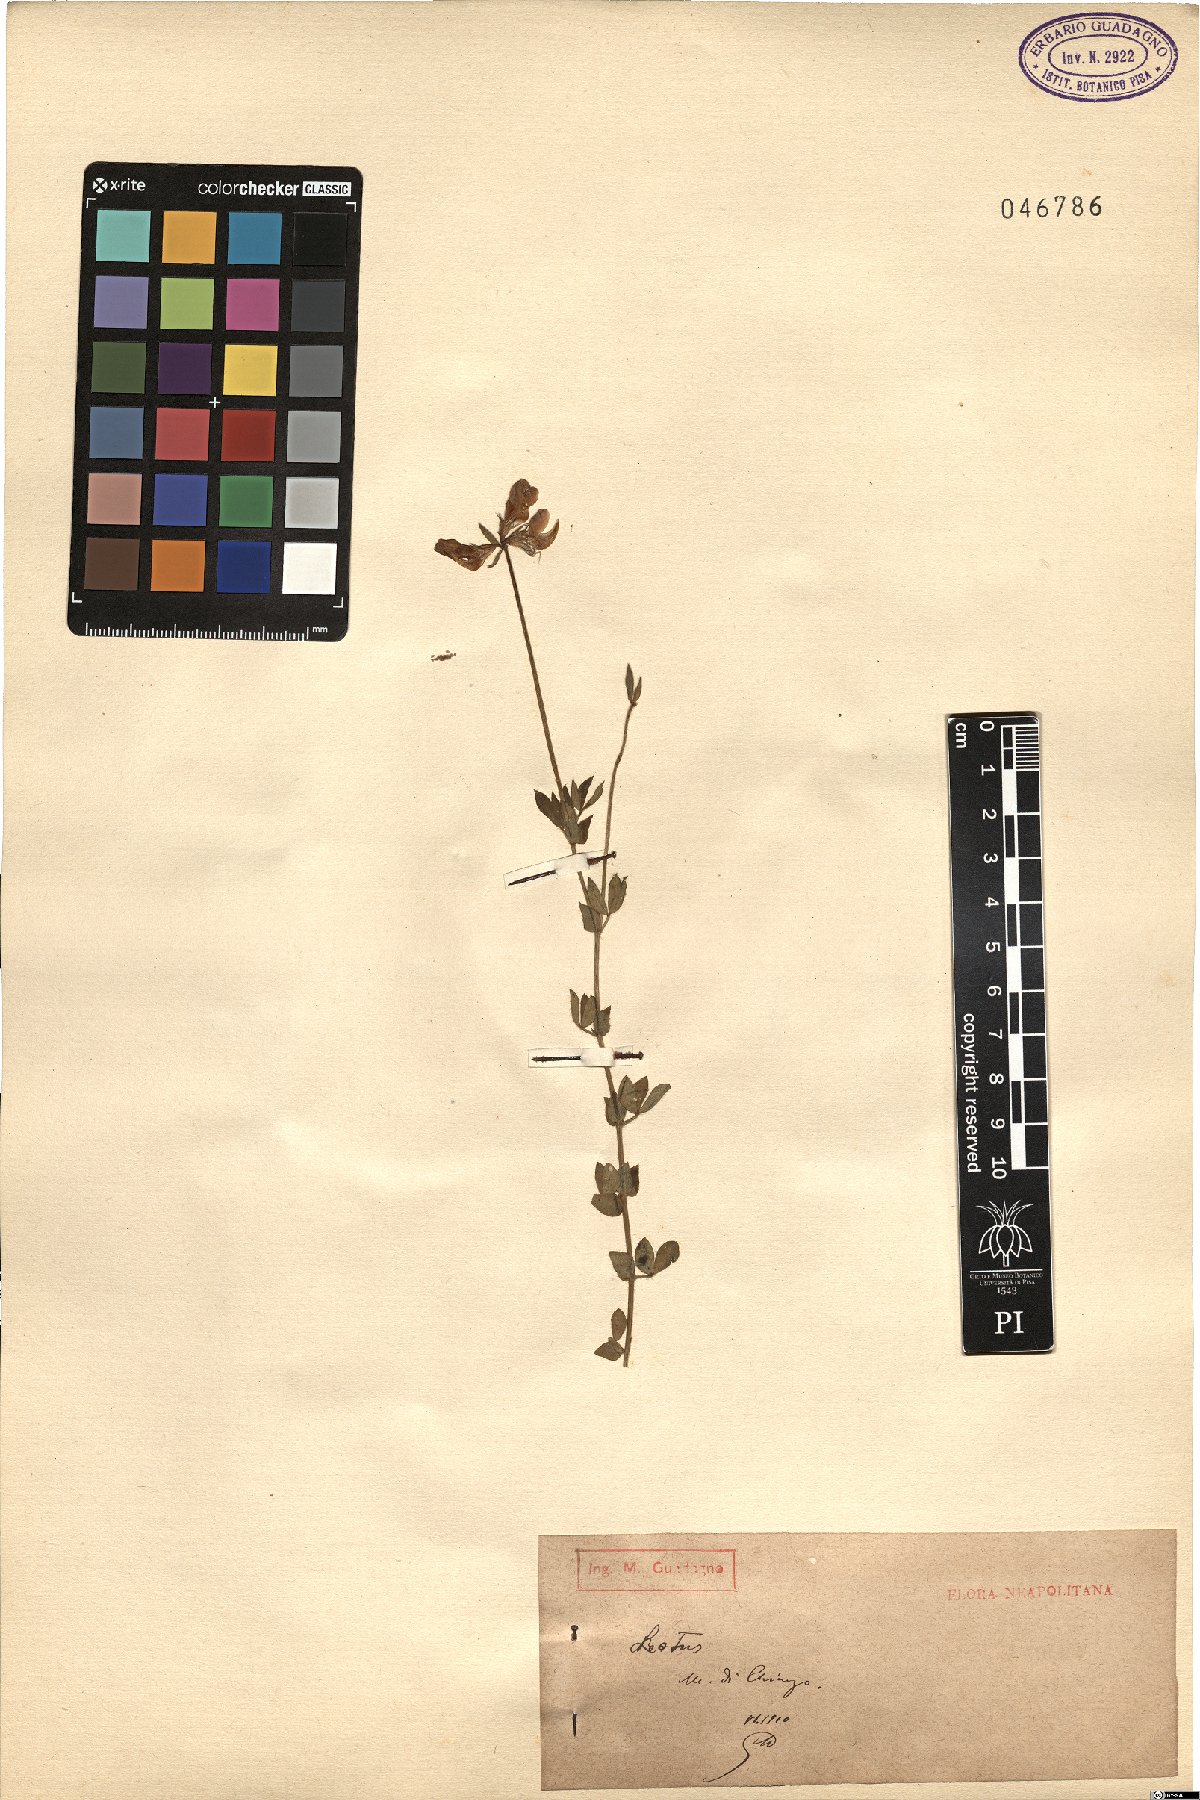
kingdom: Plantae
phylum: Tracheophyta
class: Magnoliopsida
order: Fabales
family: Fabaceae
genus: Lotus
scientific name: Lotus
